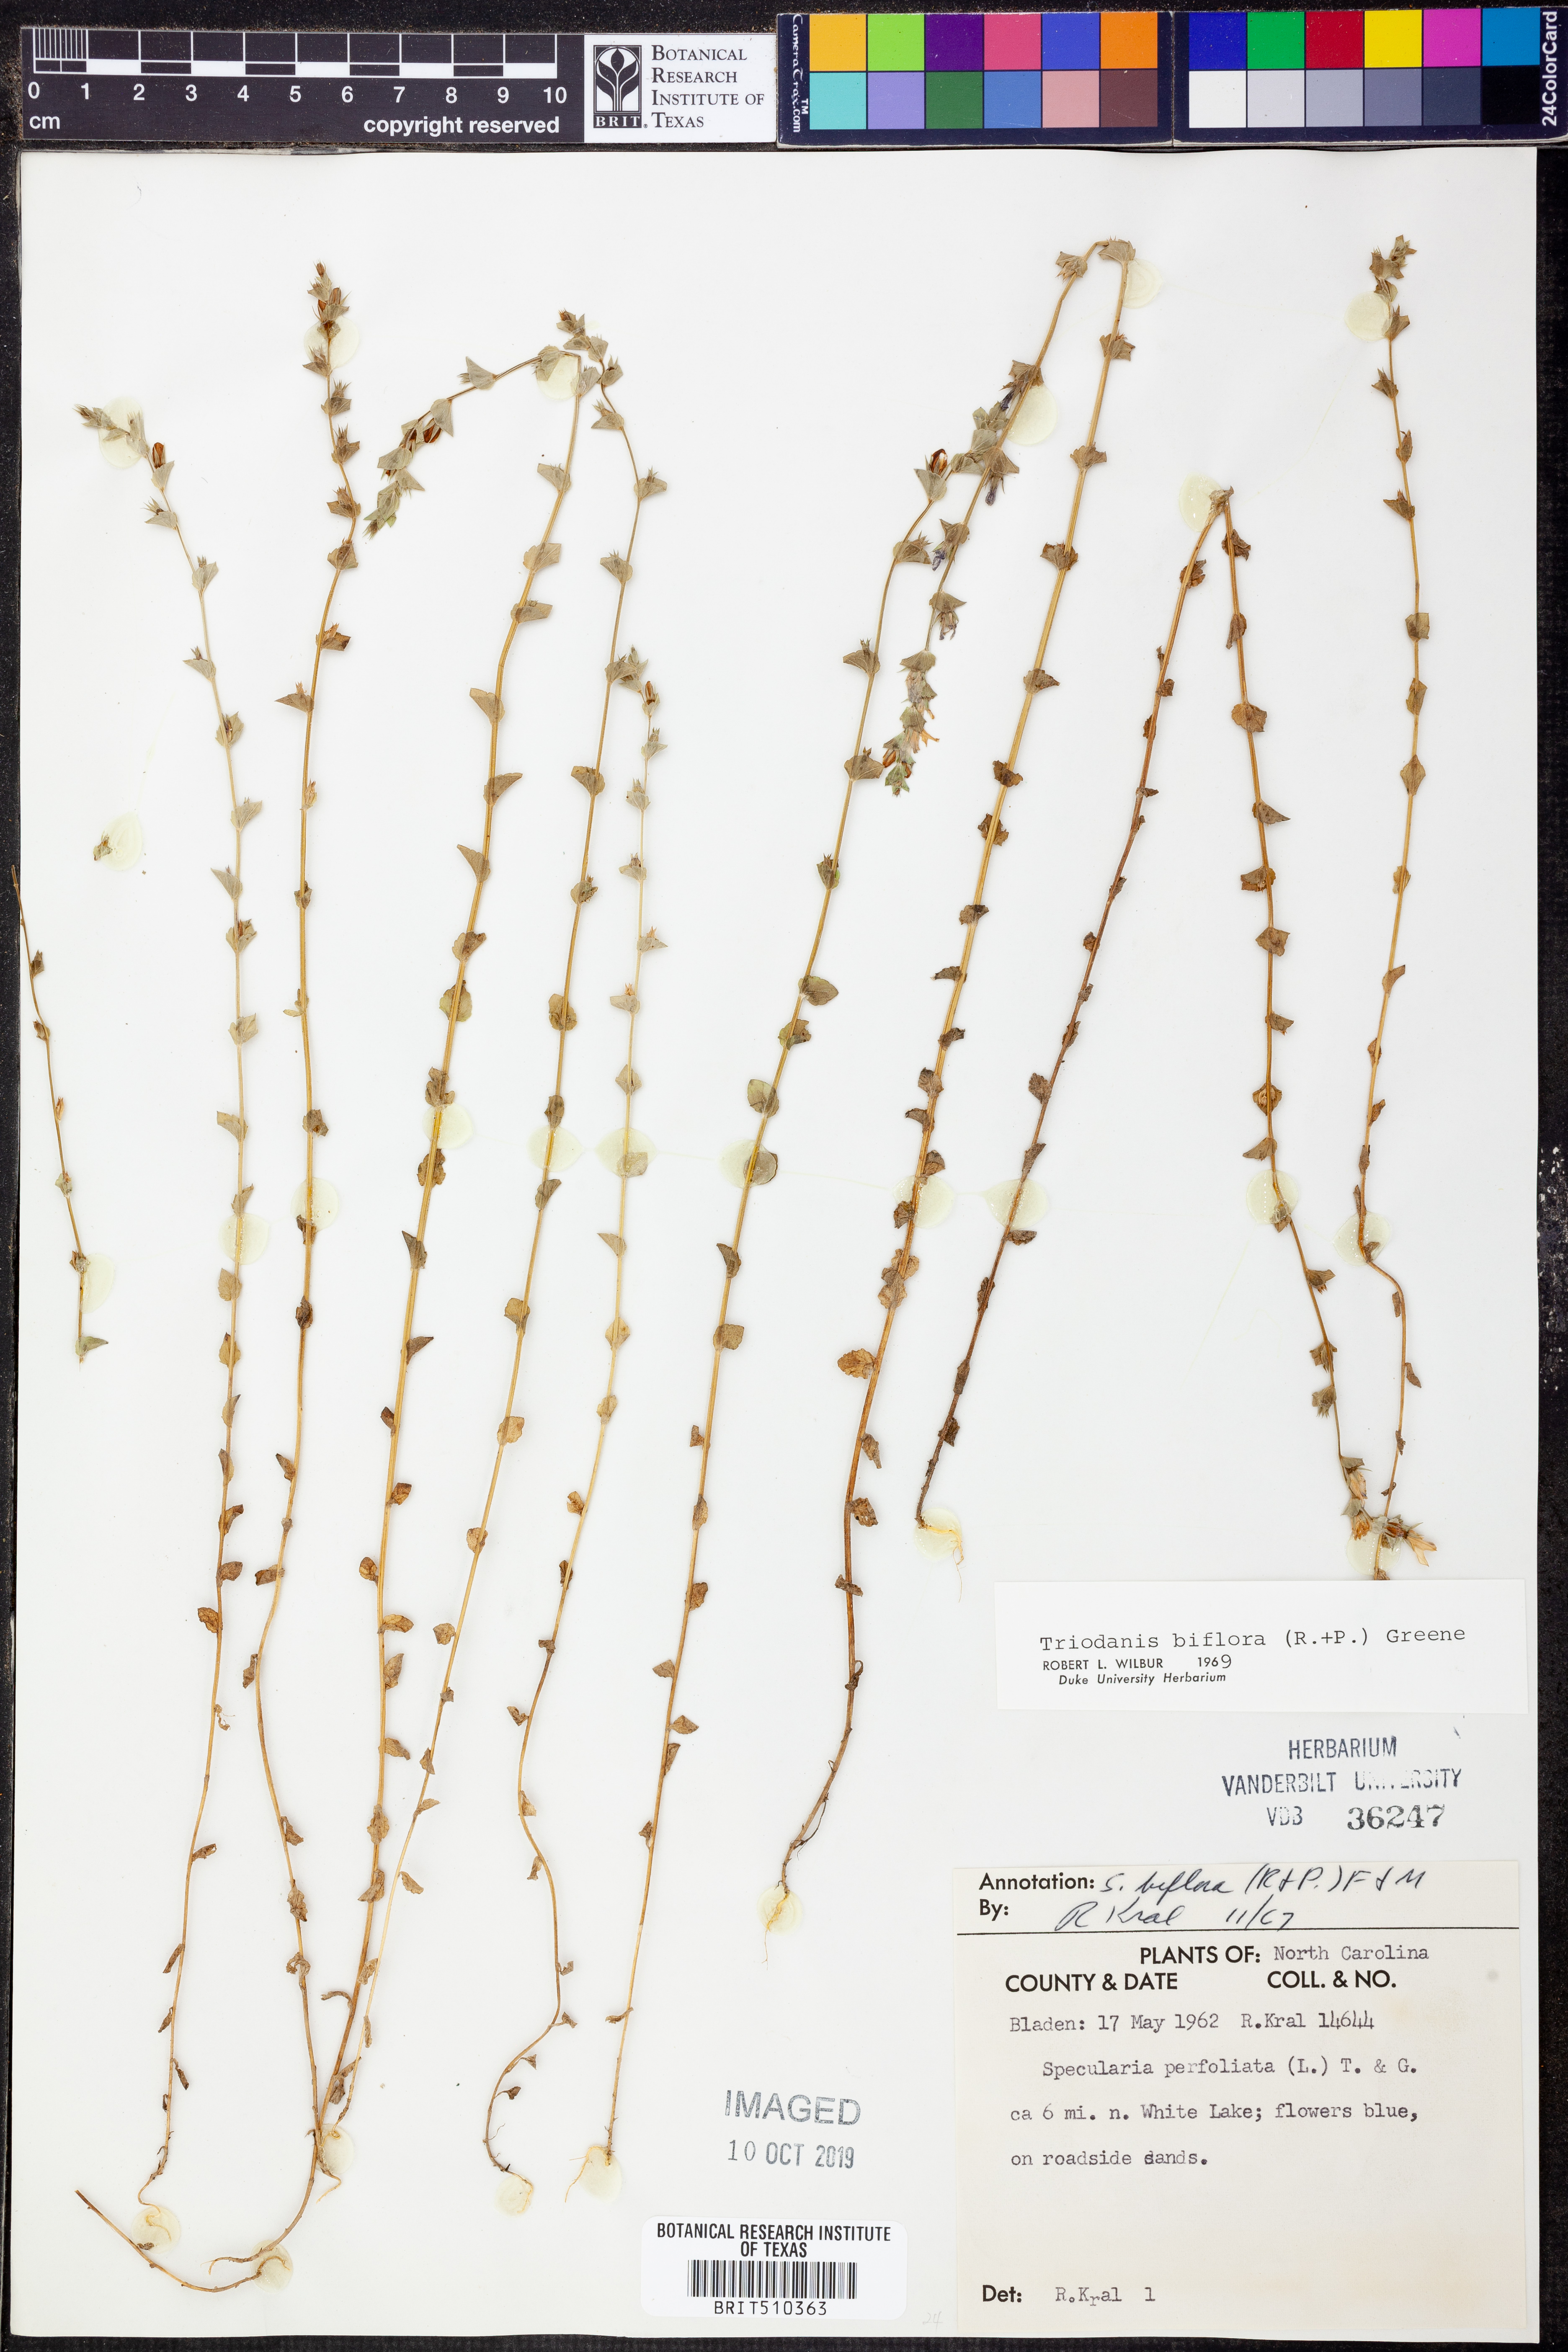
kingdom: Plantae
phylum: Tracheophyta
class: Magnoliopsida
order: Asterales
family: Campanulaceae
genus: Triodanis
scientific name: Triodanis perfoliata
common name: Clasping venus' looking-glass
